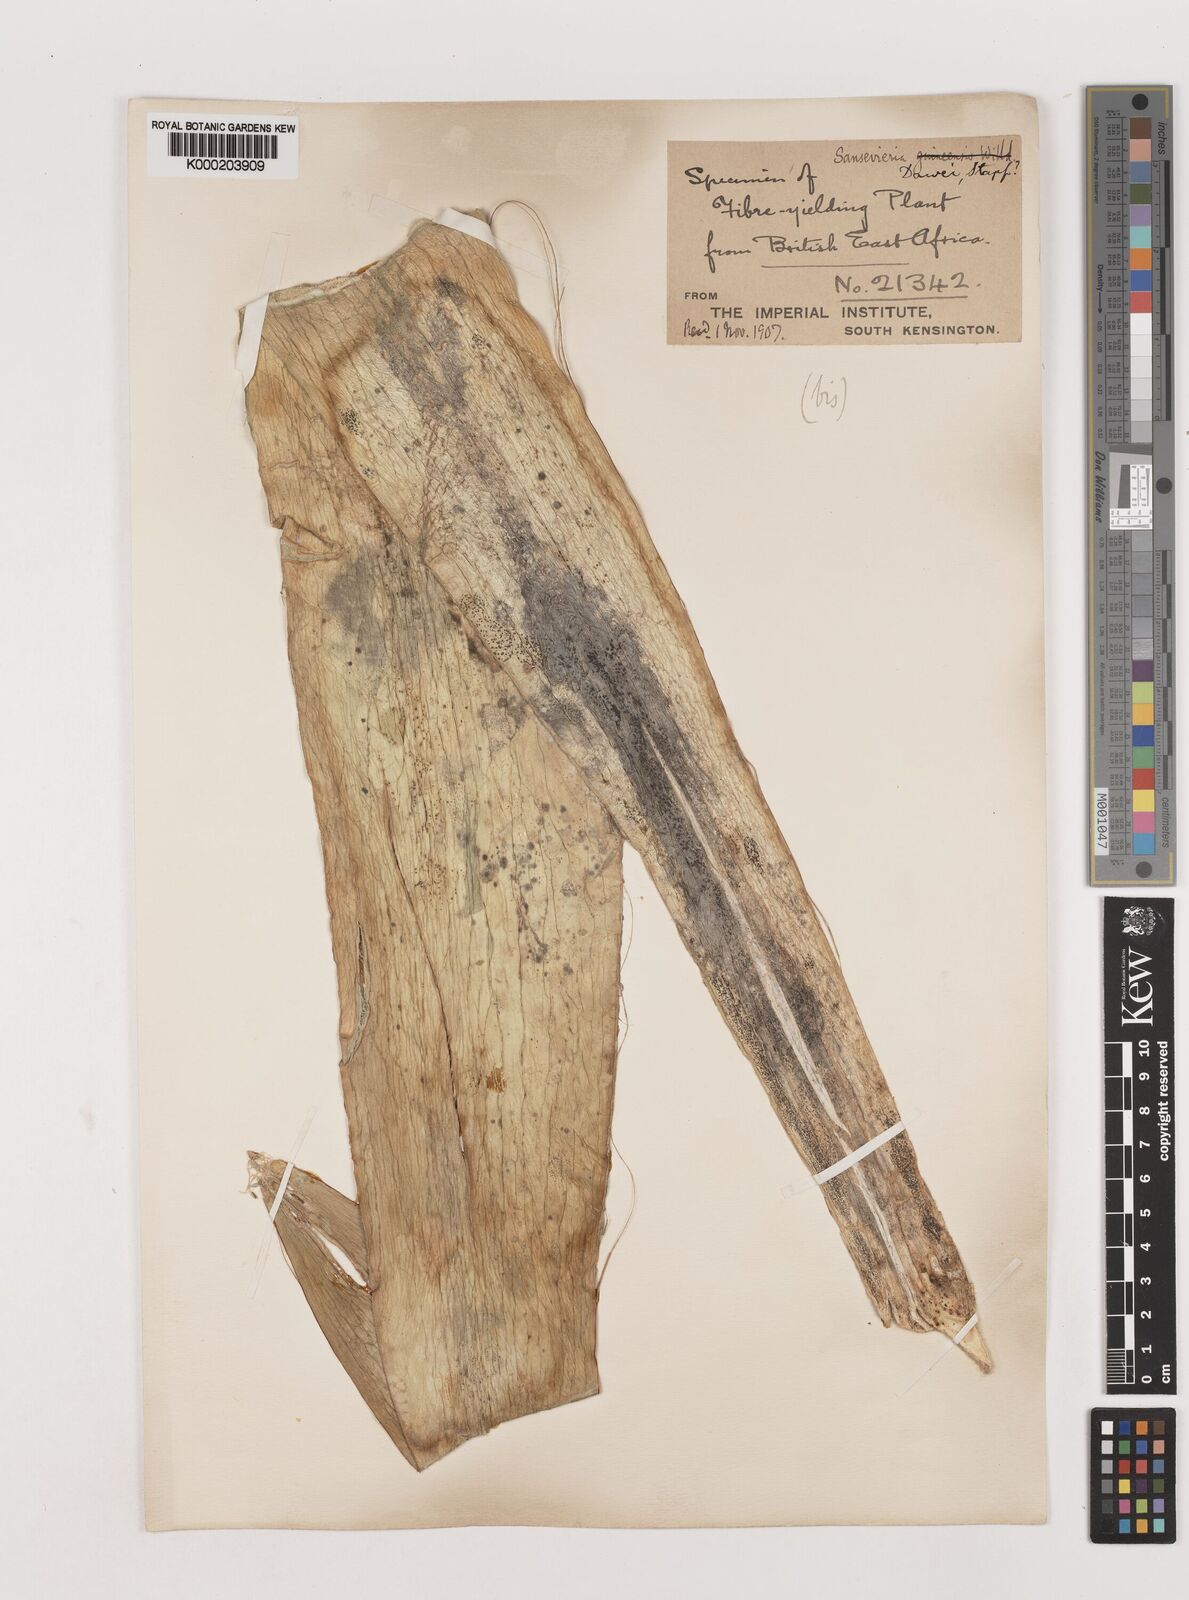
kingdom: Plantae
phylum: Tracheophyta
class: Liliopsida
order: Asparagales
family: Asparagaceae
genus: Dracaena
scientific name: Dracaena dawei
